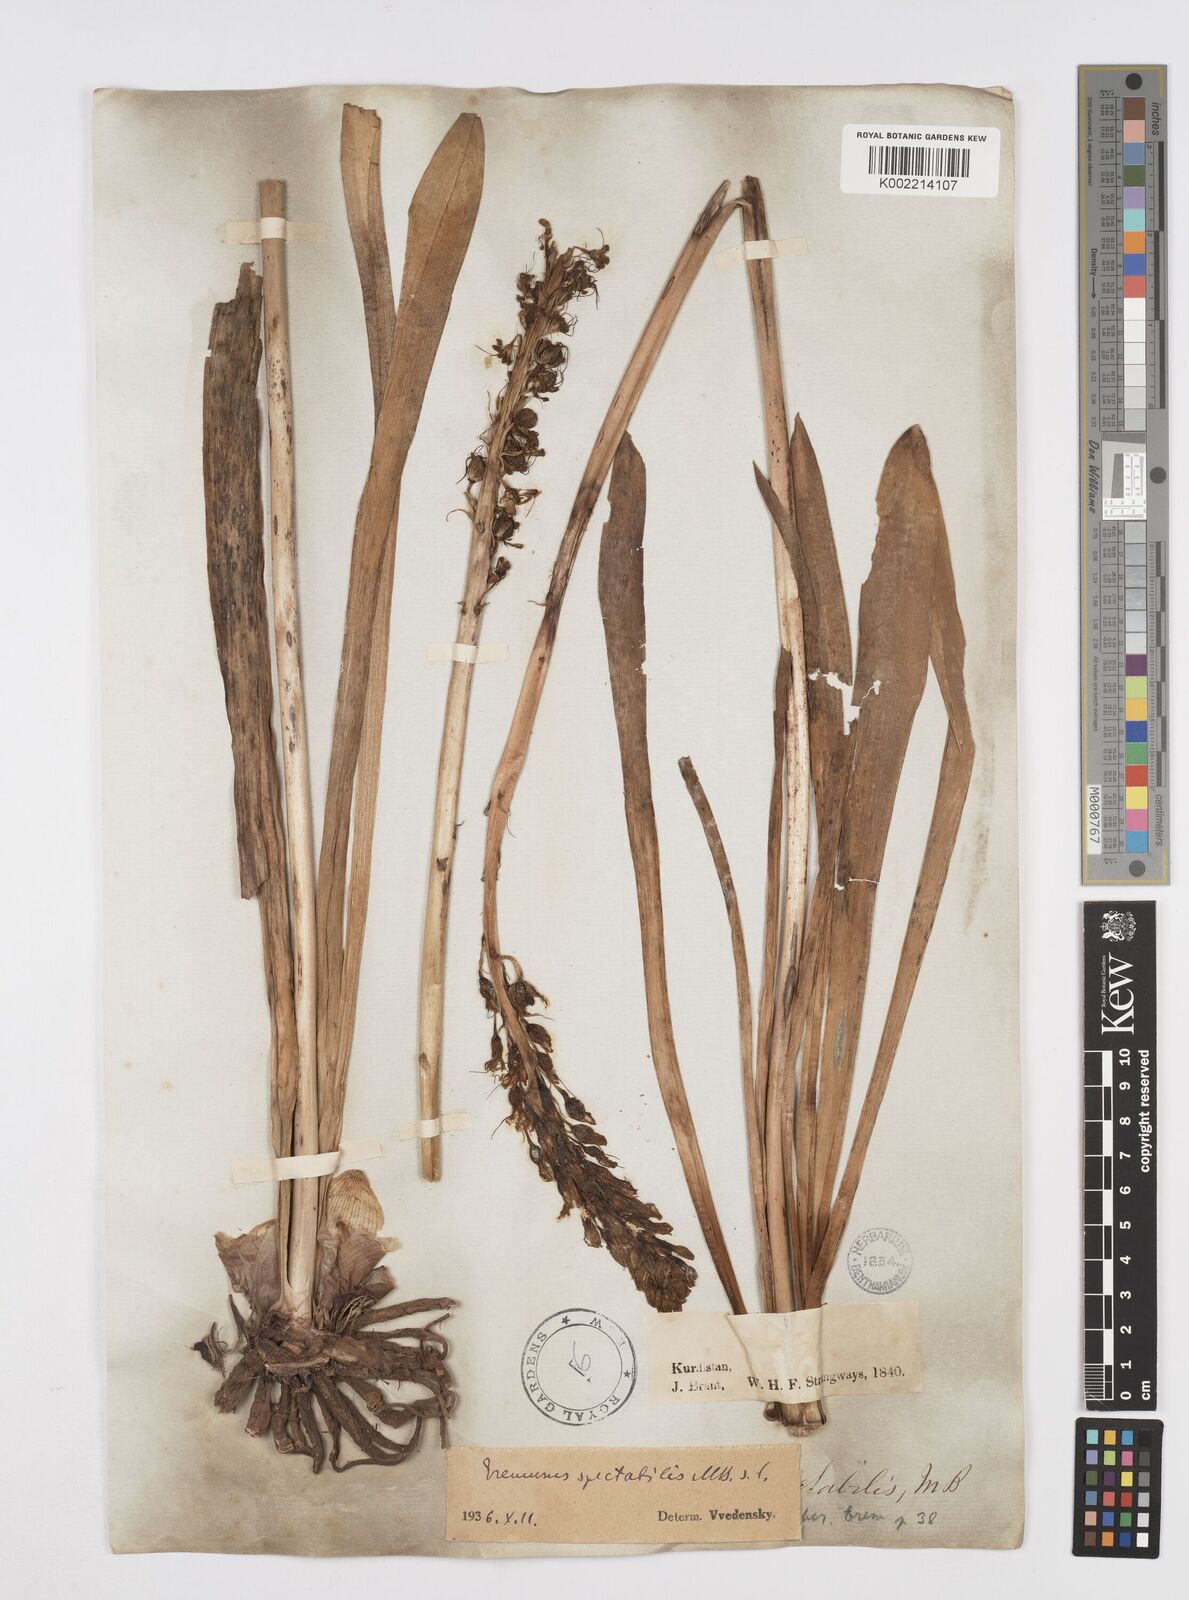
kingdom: Plantae
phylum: Tracheophyta
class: Liliopsida
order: Asparagales
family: Asphodelaceae
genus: Eremurus
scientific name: Eremurus spectabilis
